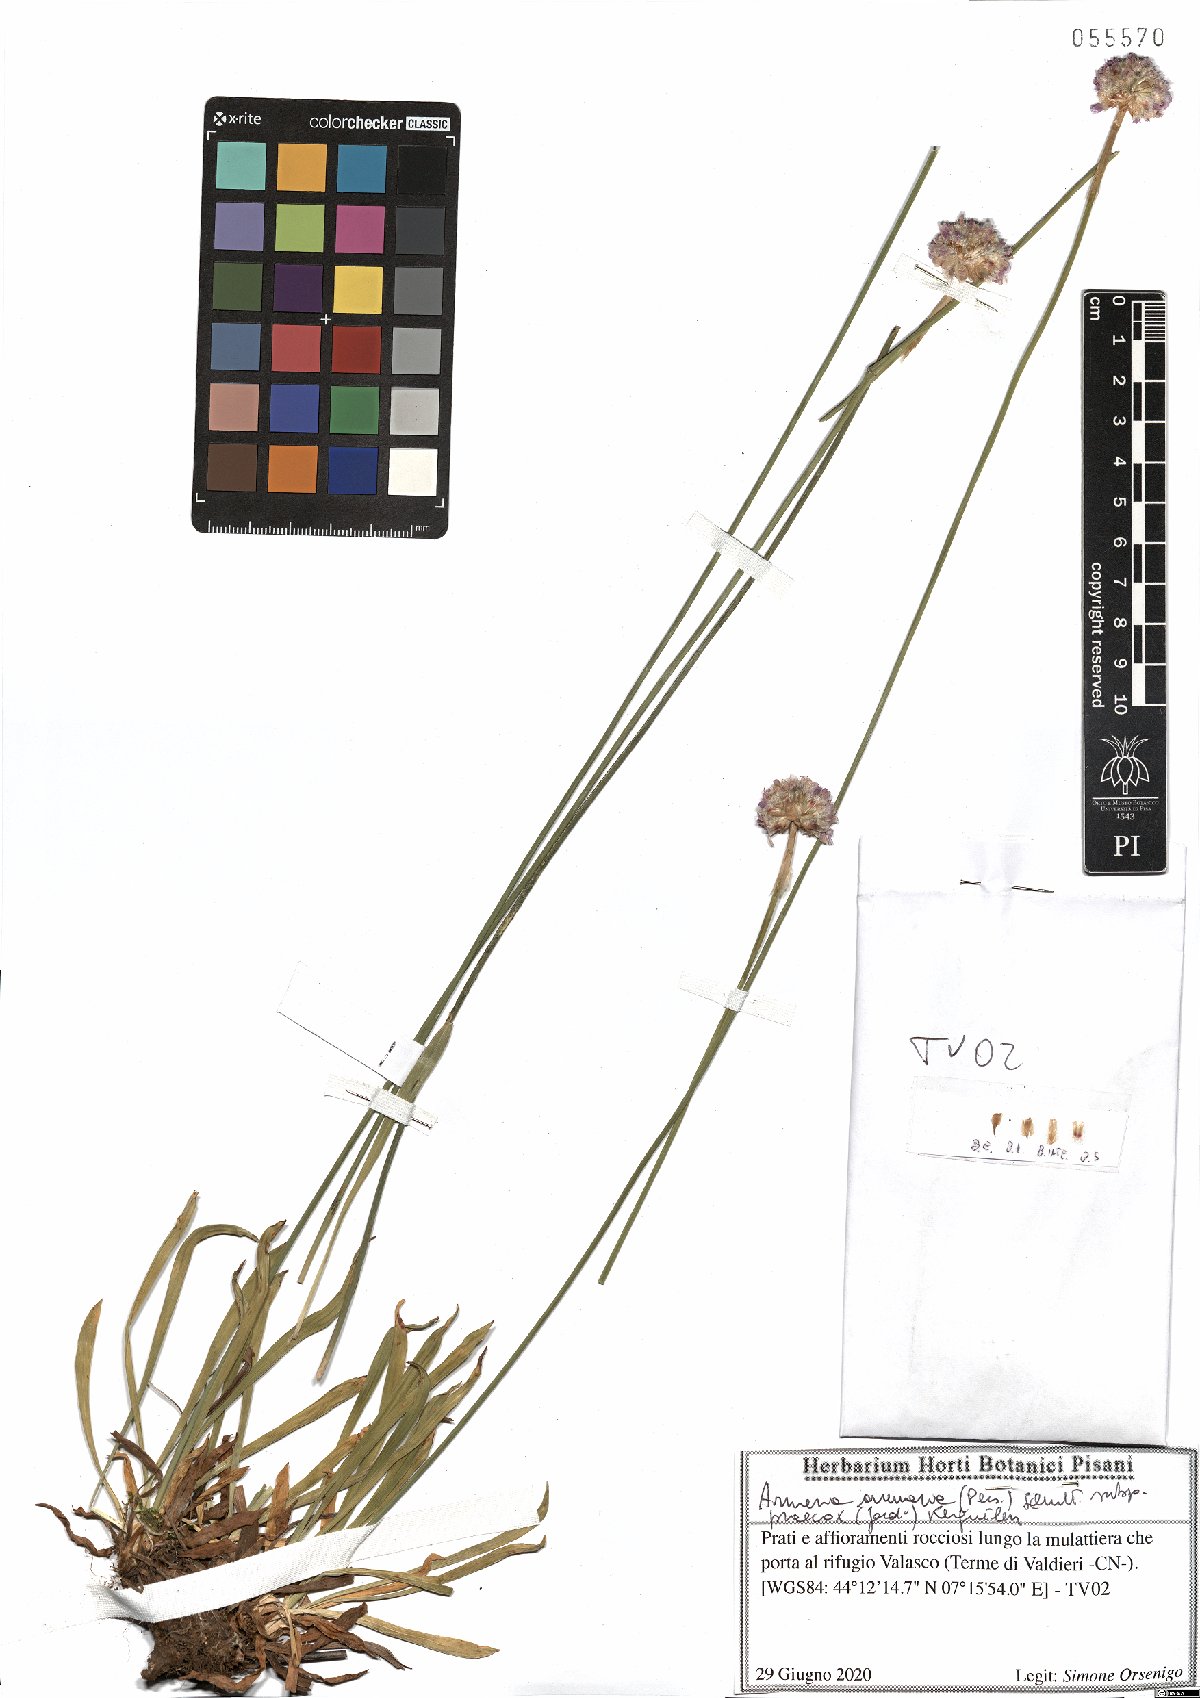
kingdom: Plantae
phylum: Tracheophyta
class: Magnoliopsida
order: Caryophyllales
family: Plumbaginaceae
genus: Armeria
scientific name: Armeria arenaria
